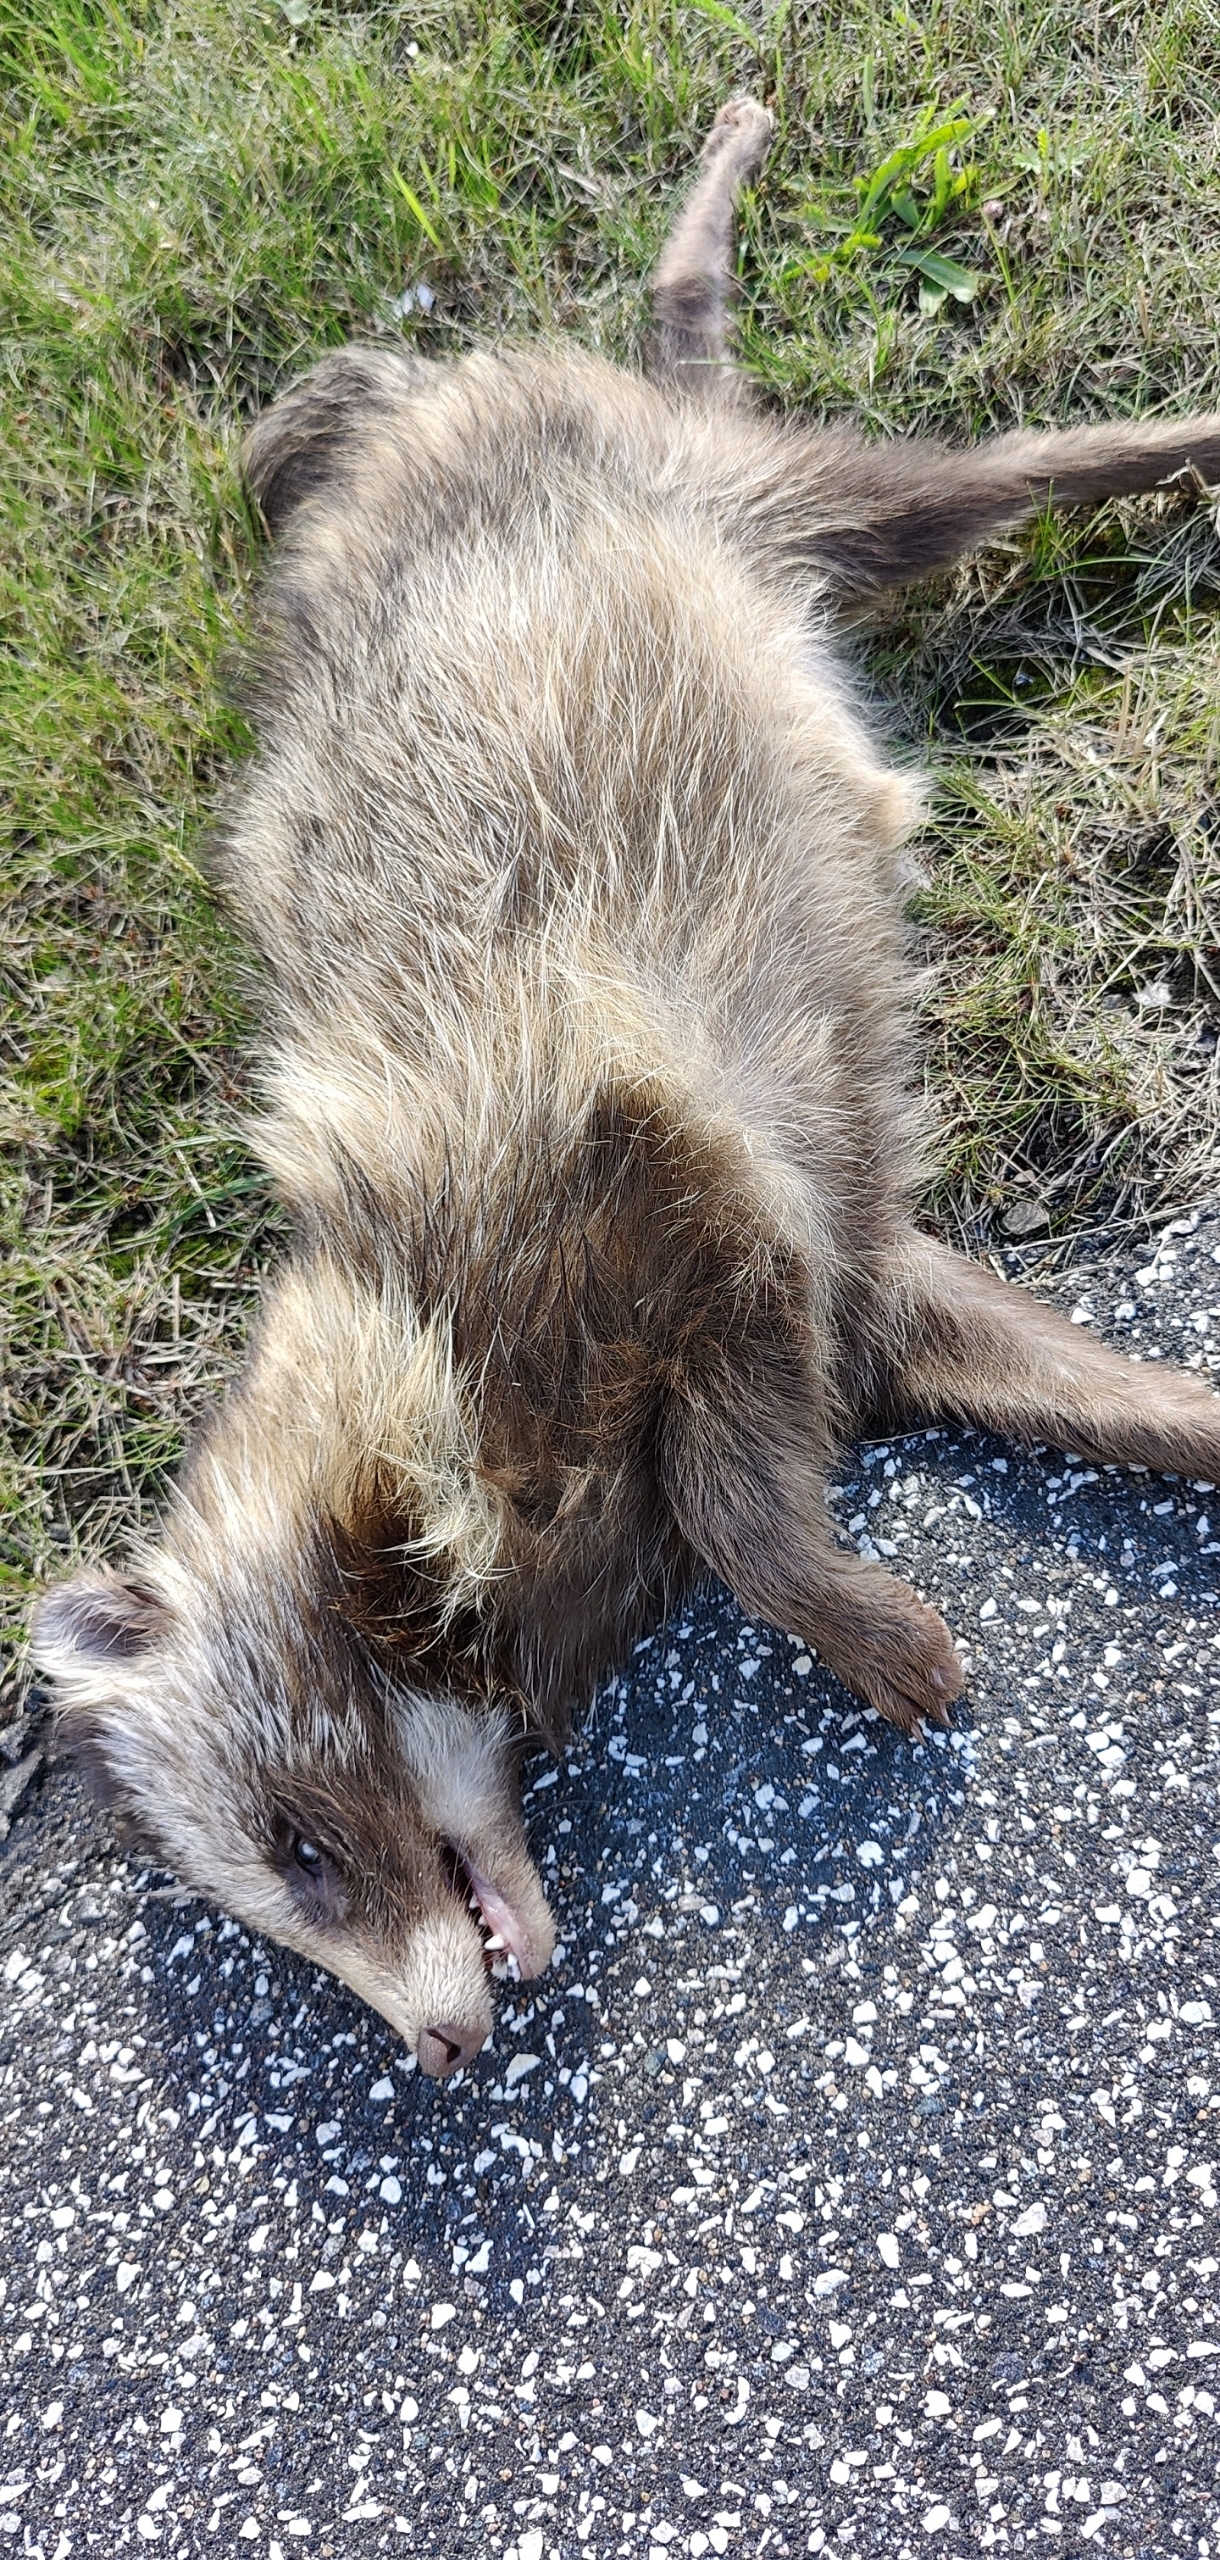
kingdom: Animalia
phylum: Chordata
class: Mammalia
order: Carnivora
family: Canidae
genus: Nyctereutes
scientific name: Nyctereutes procyonoides
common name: Mårhund
